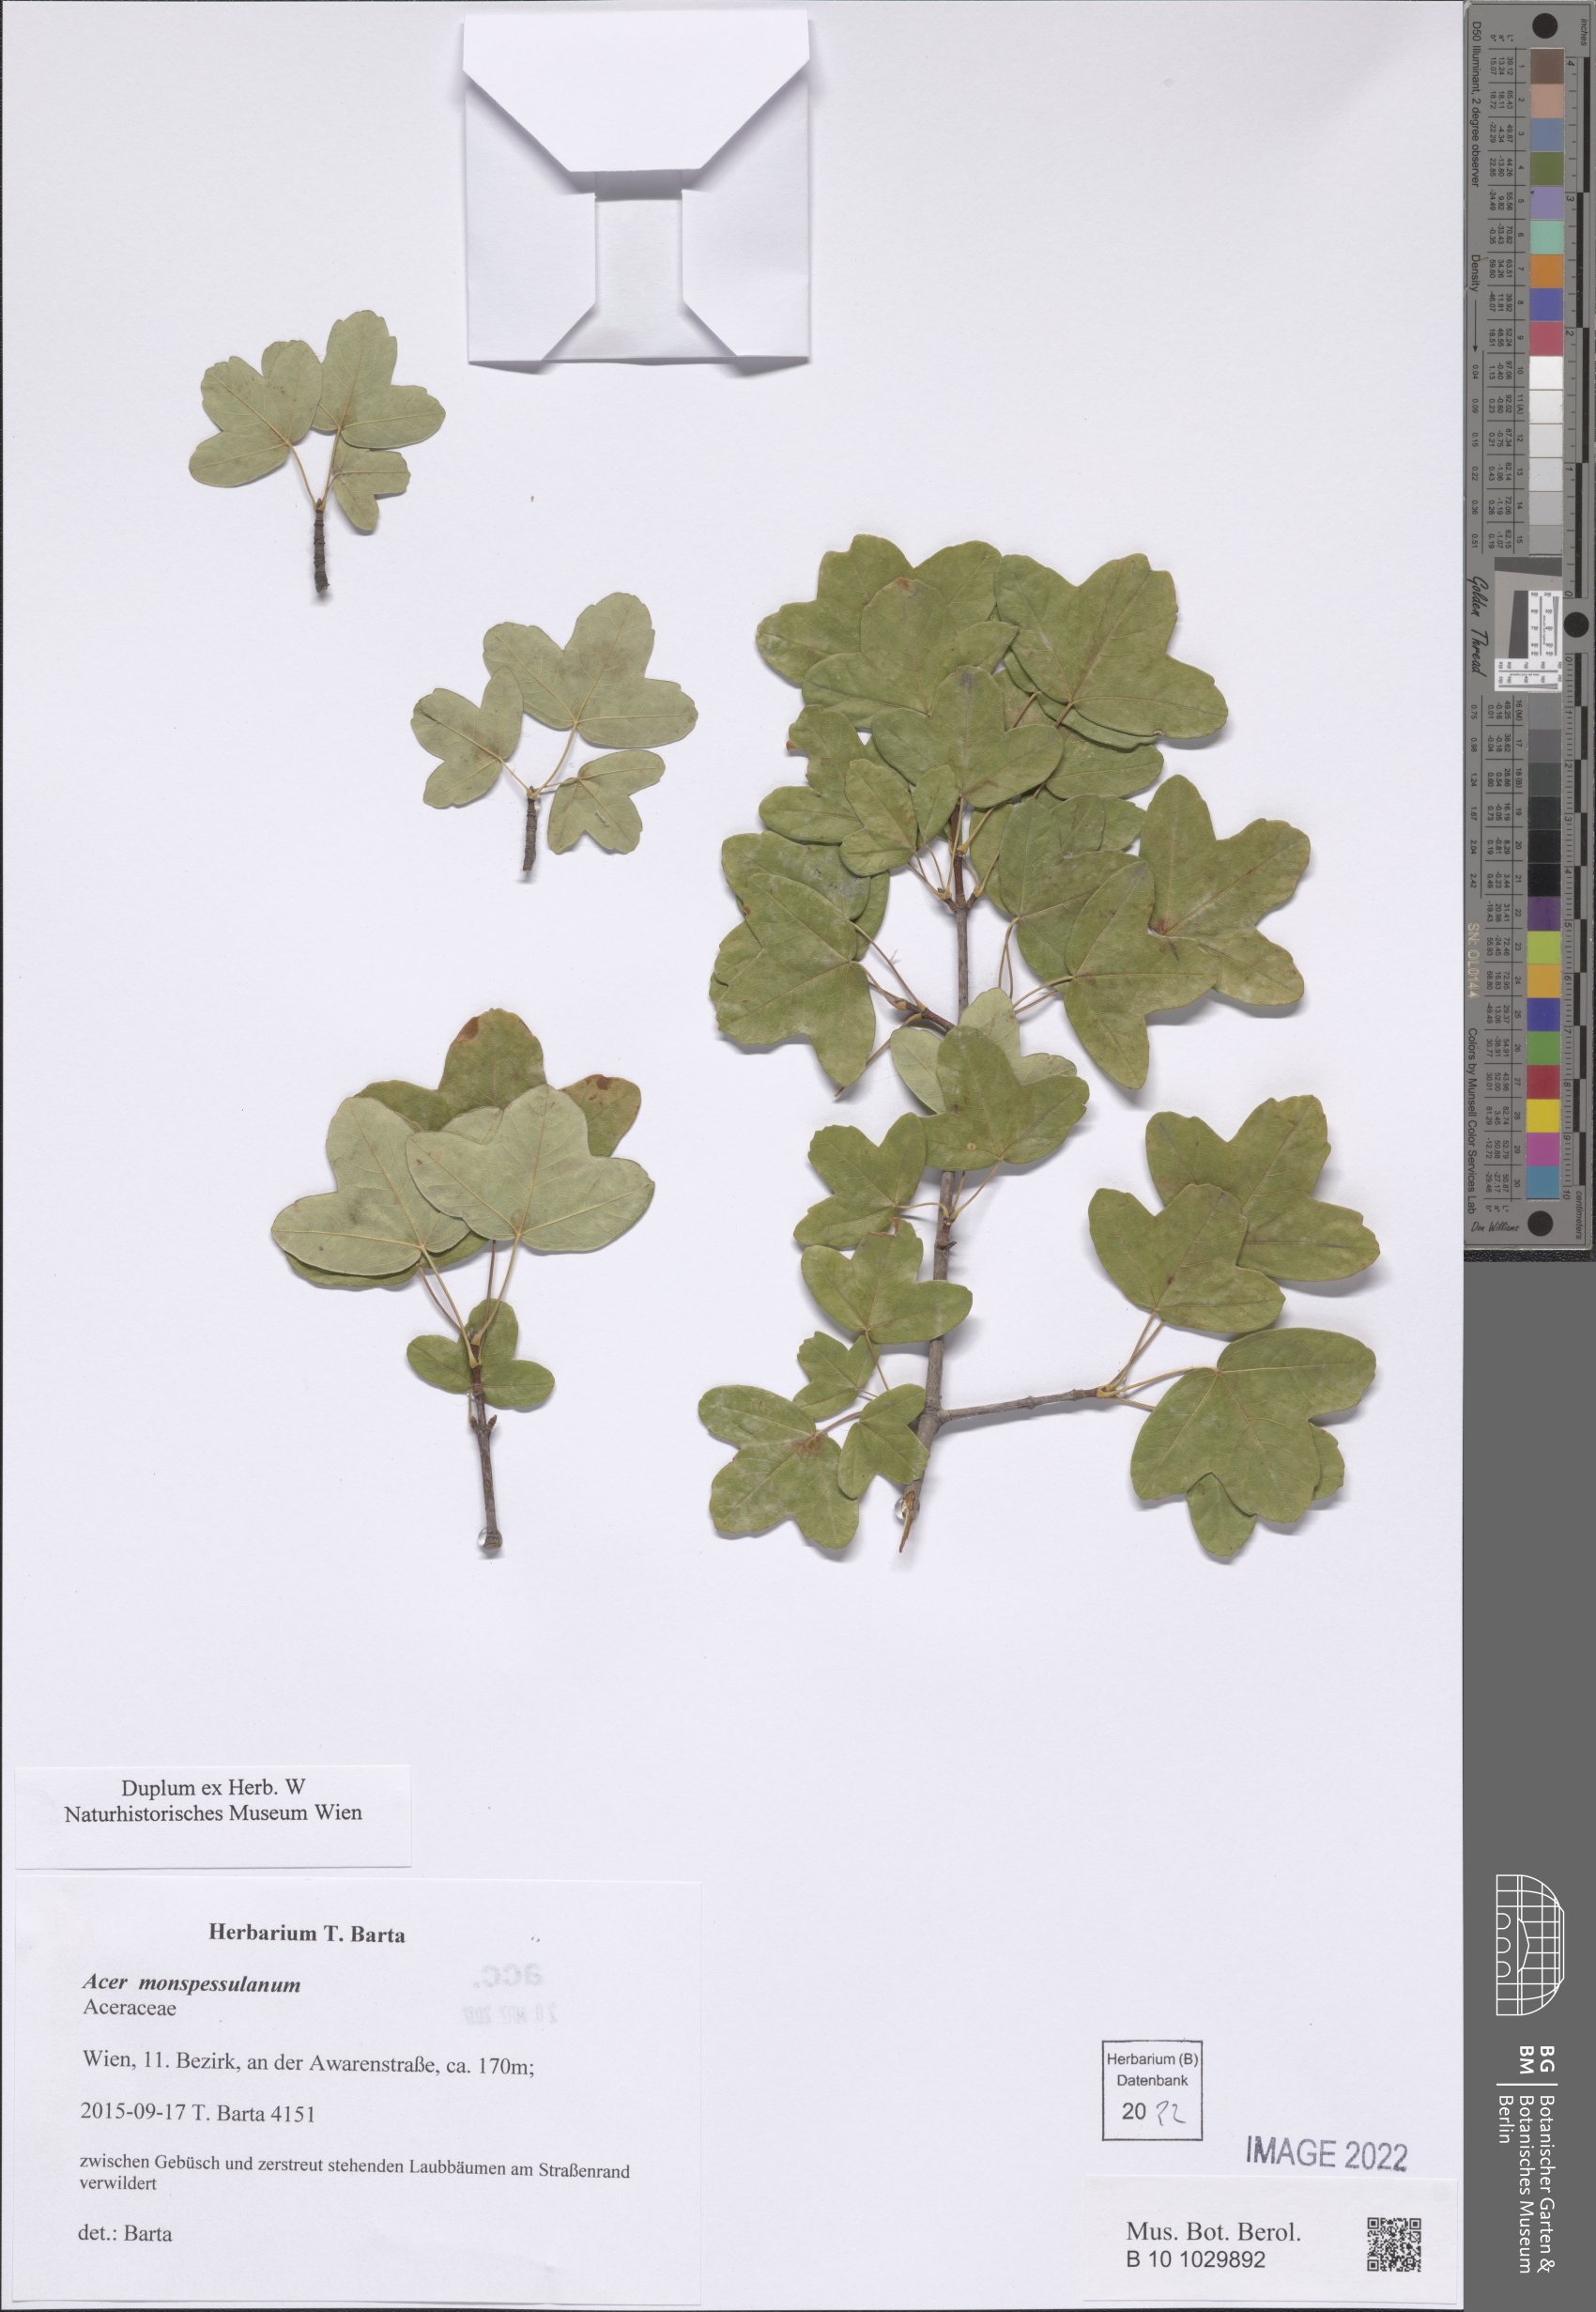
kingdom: Plantae
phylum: Tracheophyta
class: Magnoliopsida
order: Sapindales
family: Sapindaceae
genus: Acer
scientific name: Acer monspessulanum
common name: Montpellier maple
